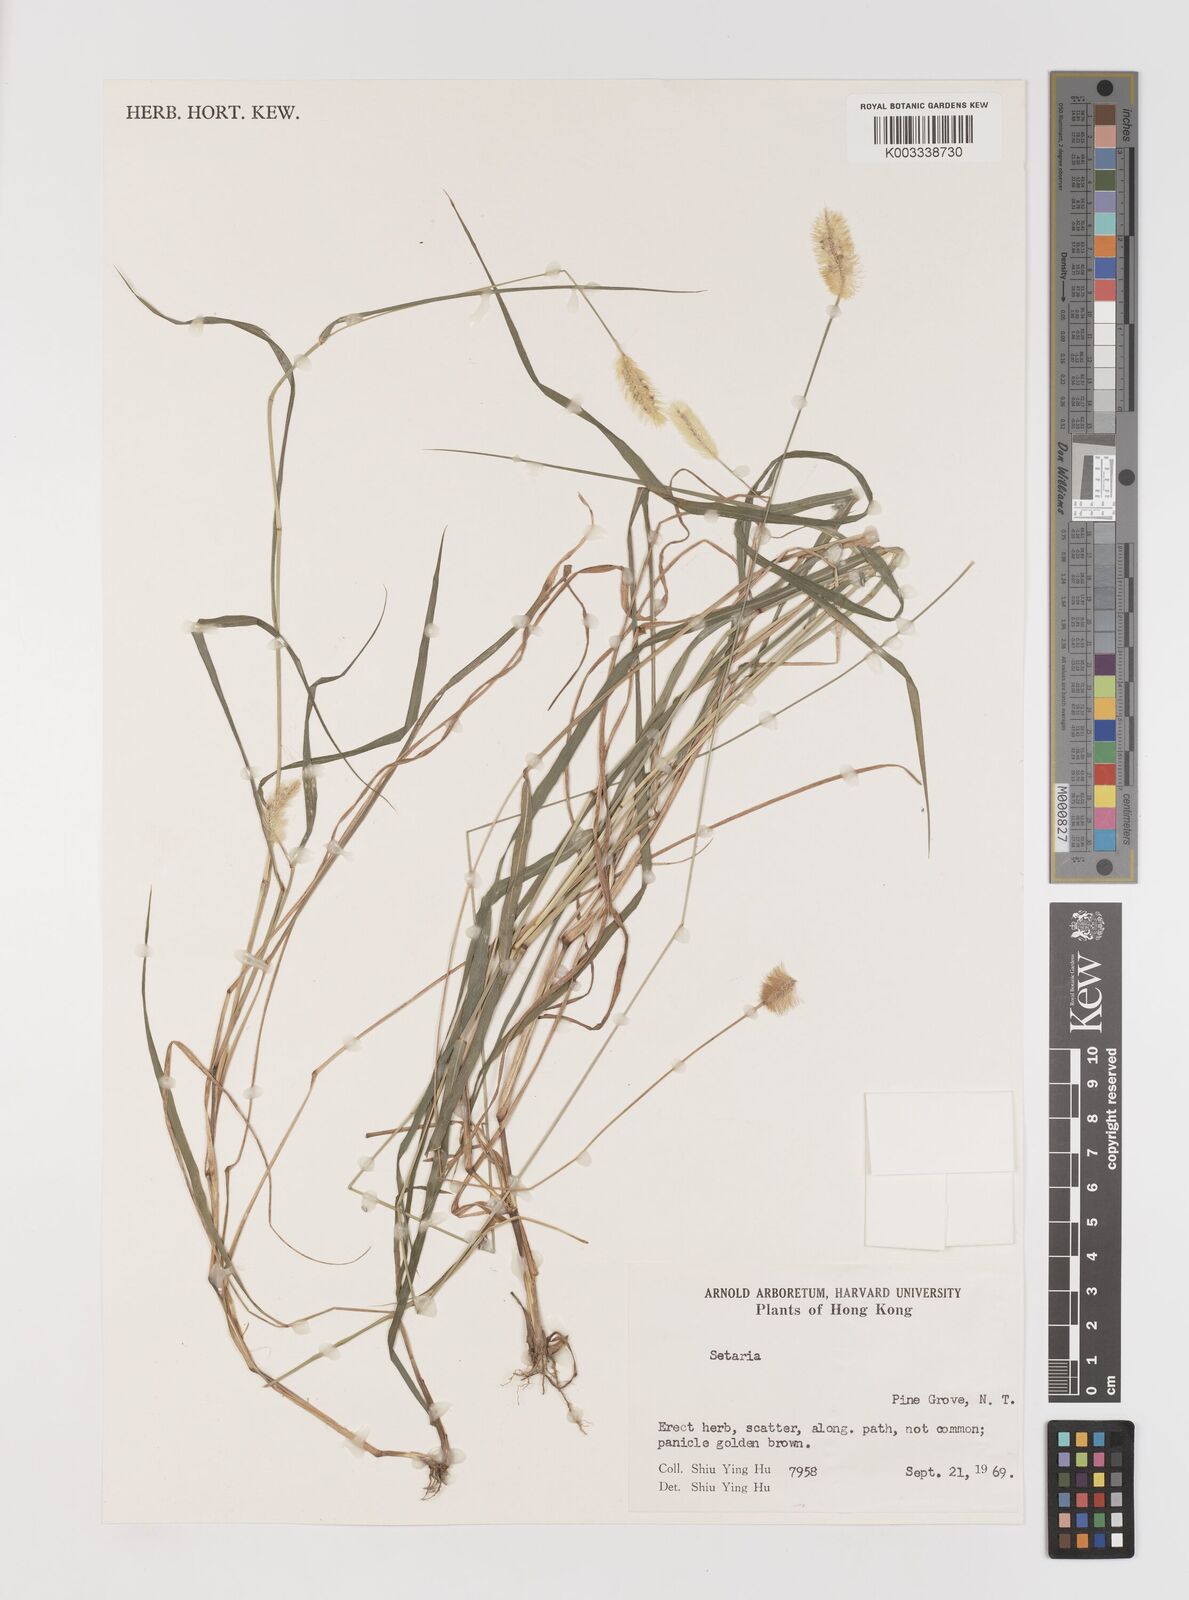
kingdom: Plantae
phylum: Tracheophyta
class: Liliopsida
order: Poales
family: Poaceae
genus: Setaria
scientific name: Setaria parviflora
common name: Knotroot bristle-grass
